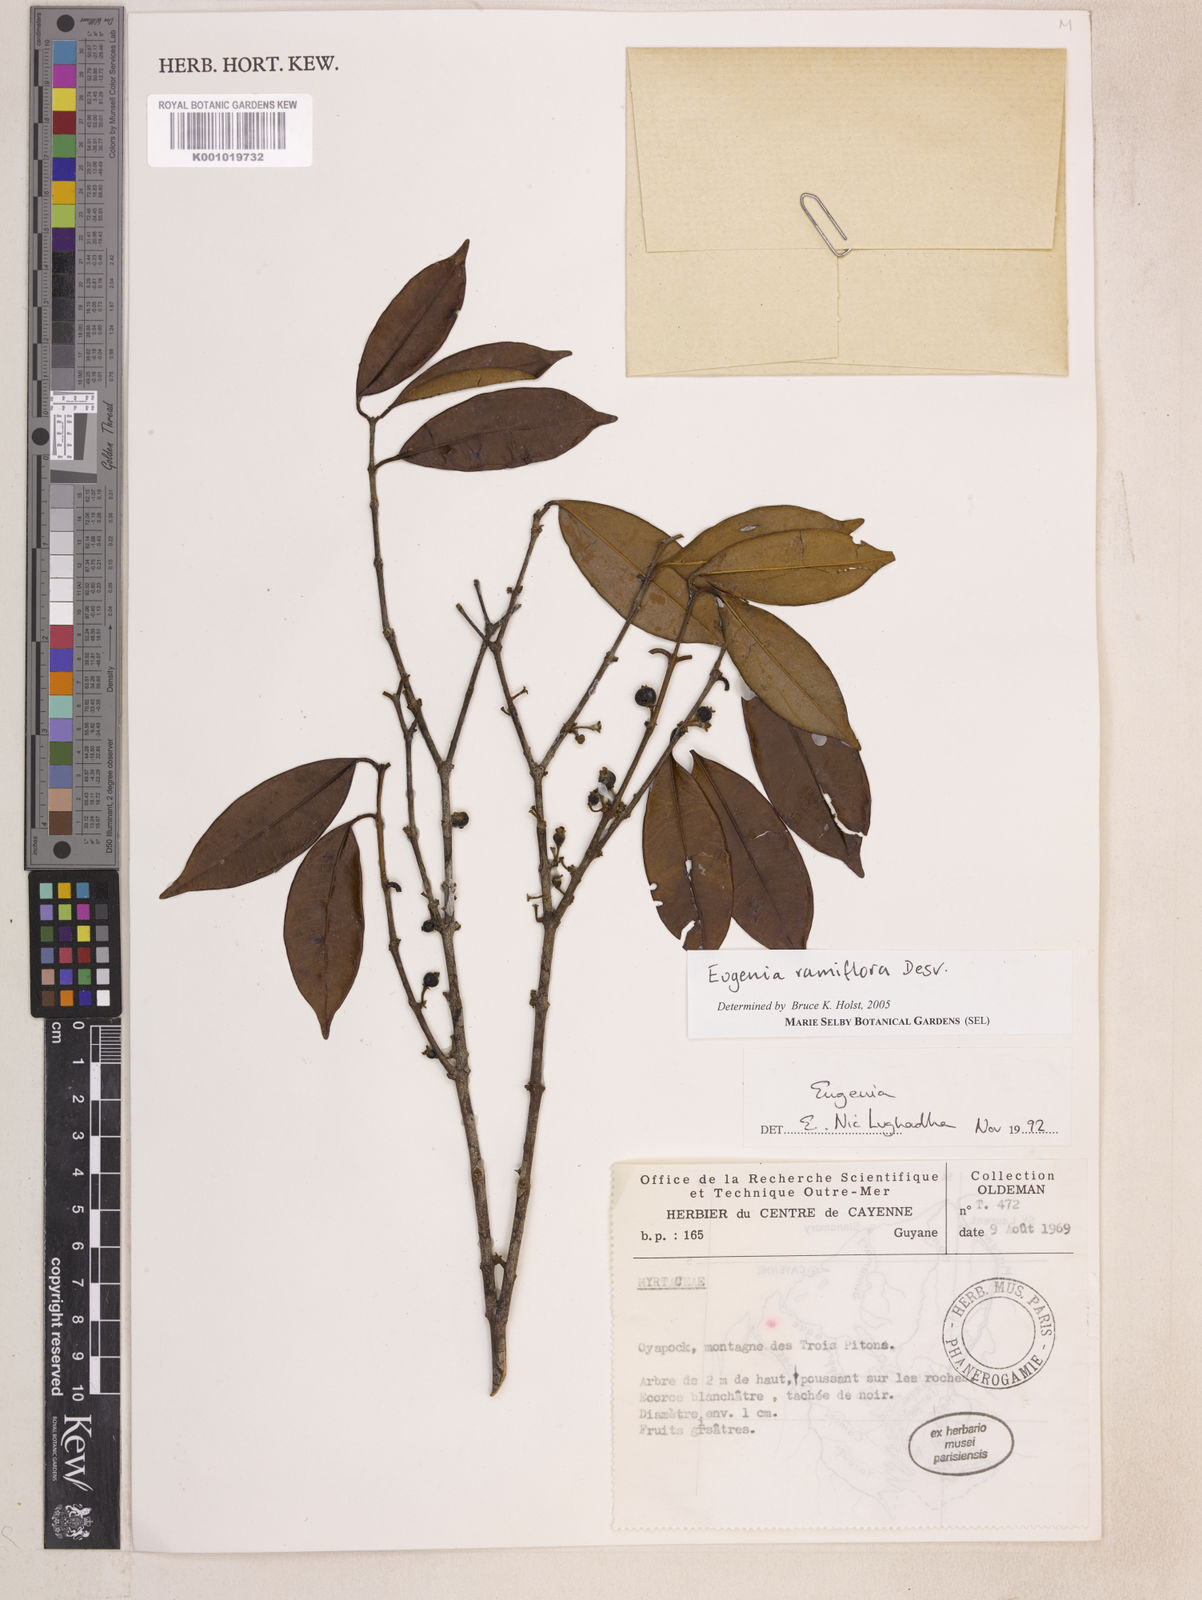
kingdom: Plantae
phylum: Tracheophyta
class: Magnoliopsida
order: Myrtales
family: Myrtaceae
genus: Eugenia
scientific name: Eugenia ramiflora
